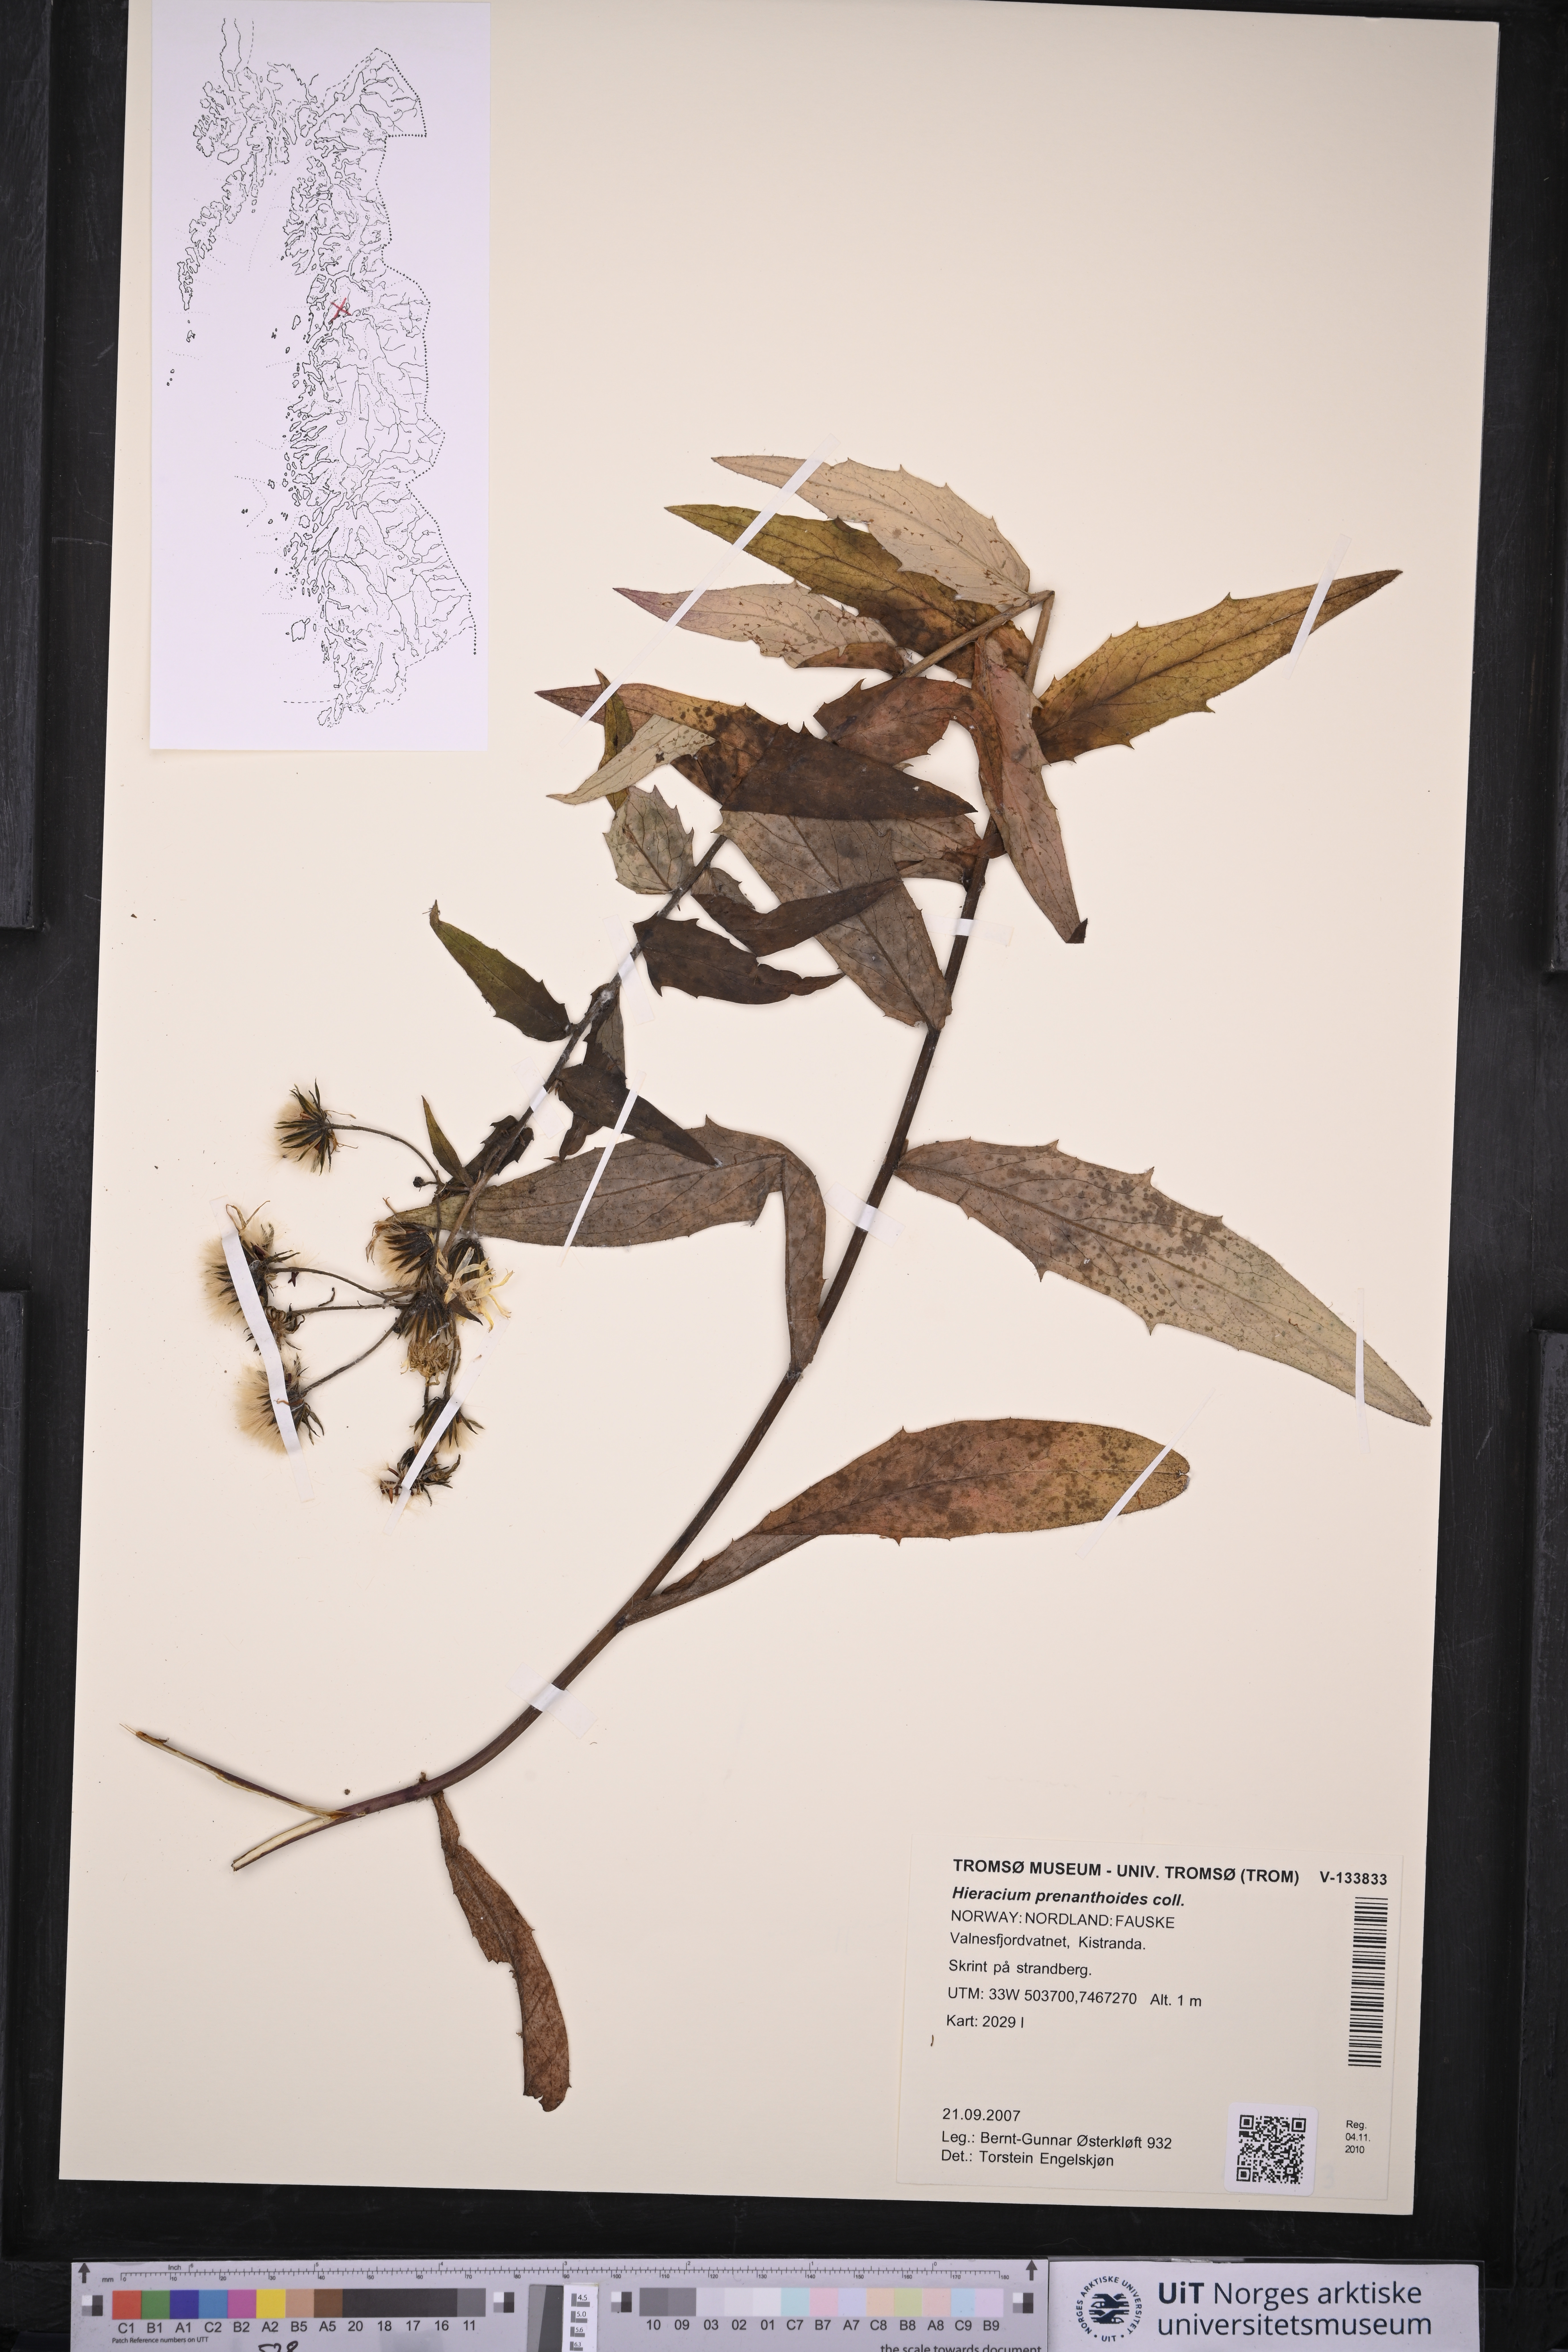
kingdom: Plantae
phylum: Tracheophyta
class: Magnoliopsida
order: Asterales
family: Asteraceae
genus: Hieracium
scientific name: Hieracium prenanthoides
